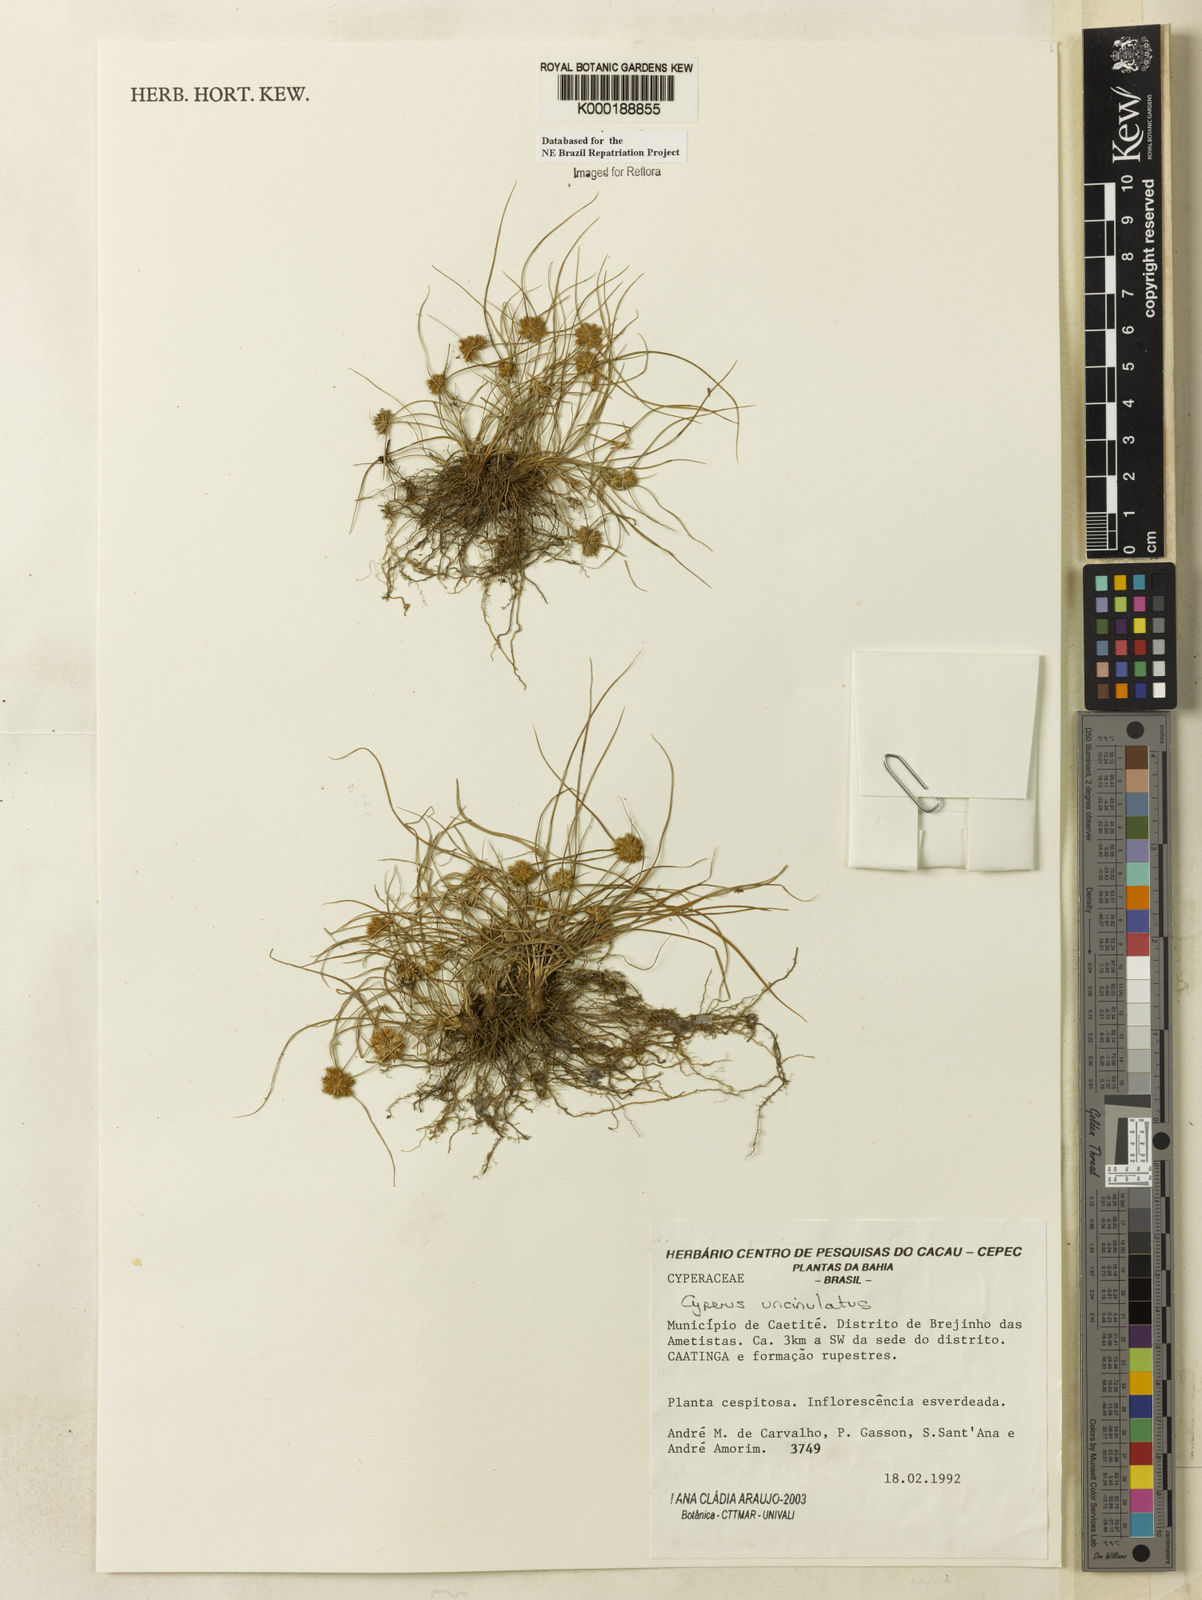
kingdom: Plantae
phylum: Tracheophyta
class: Liliopsida
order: Poales
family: Cyperaceae
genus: Cyperus
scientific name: Cyperus uncinulatus
